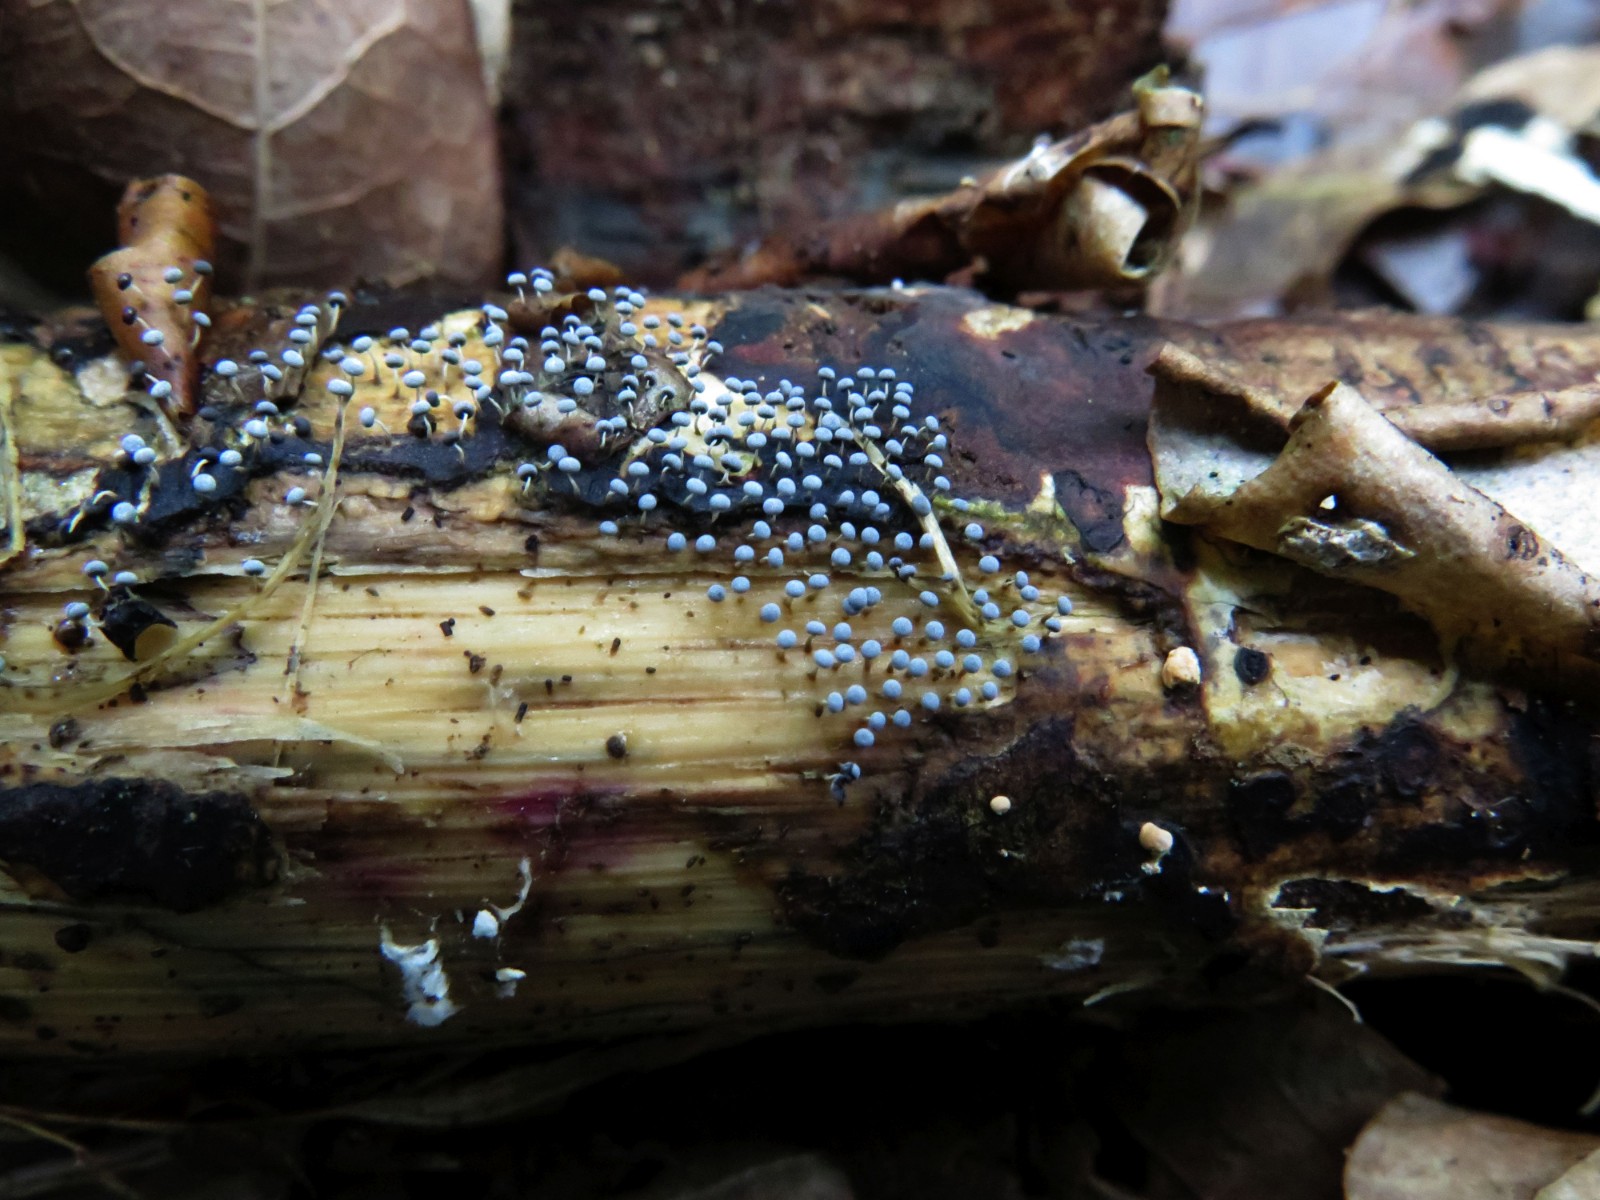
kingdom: Protozoa
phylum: Mycetozoa
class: Myxomycetes
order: Physarales
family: Physaraceae
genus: Physarum
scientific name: Physarum album
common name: nikkende støvknop
